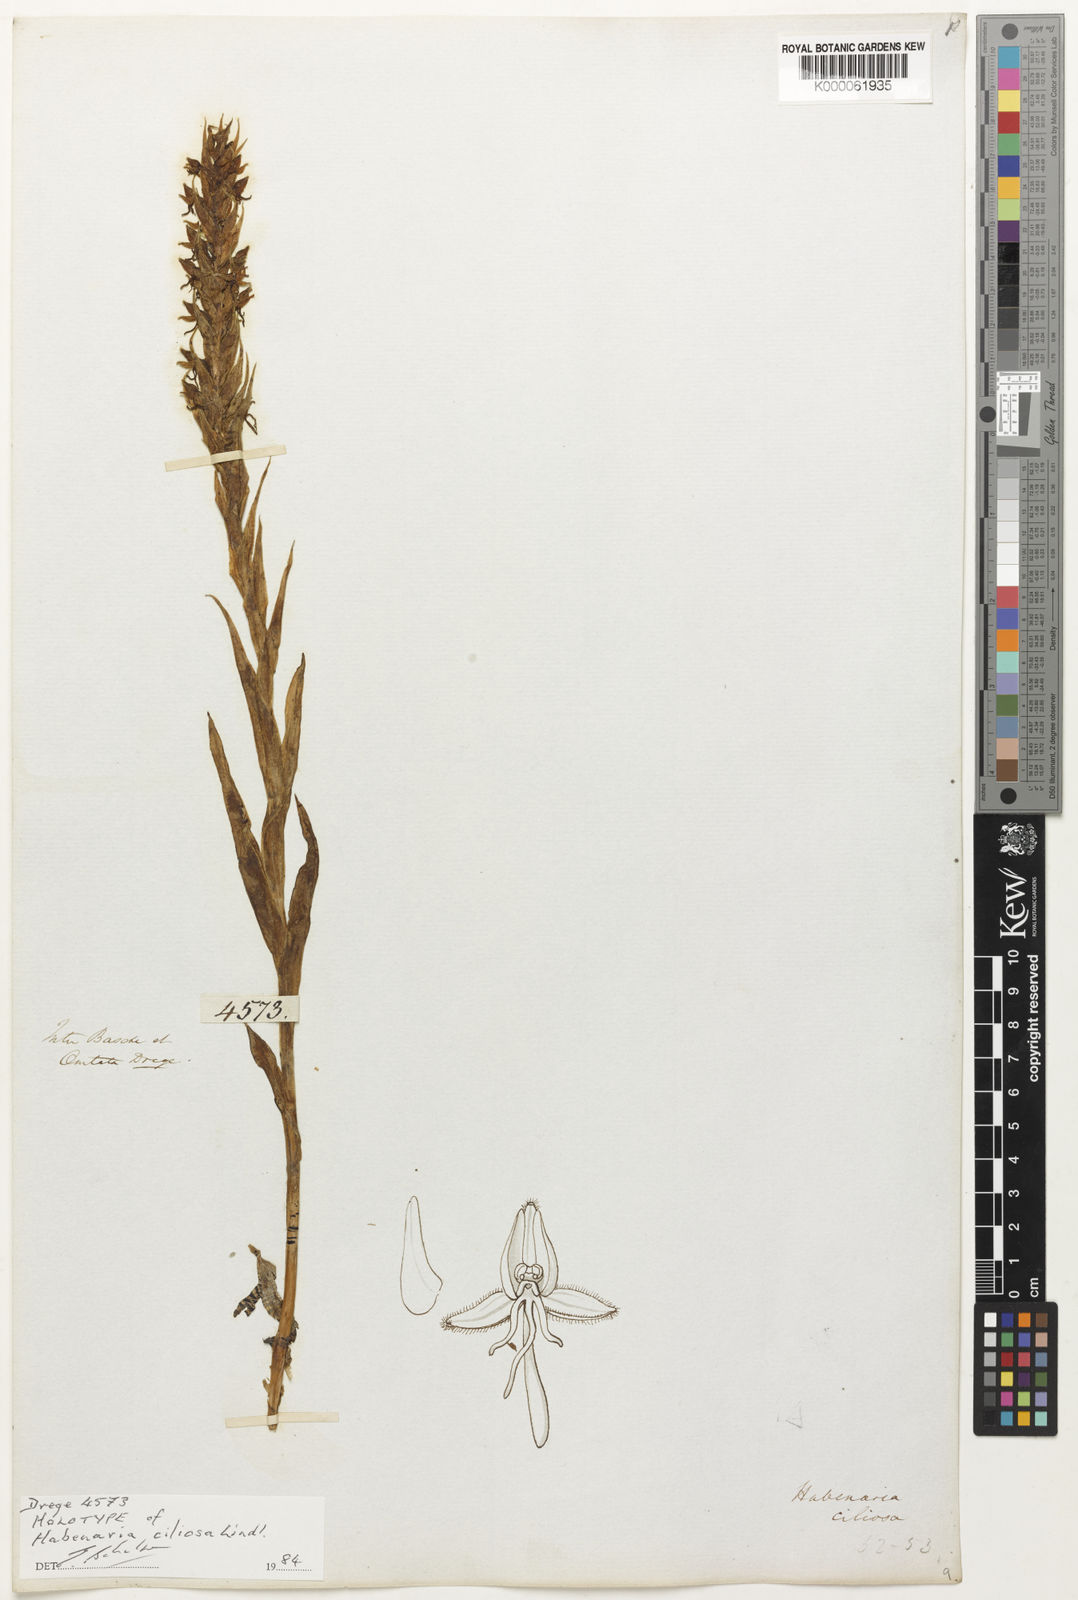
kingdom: Plantae
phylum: Tracheophyta
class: Liliopsida
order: Asparagales
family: Orchidaceae
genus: Habenaria
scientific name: Habenaria ciliosa
